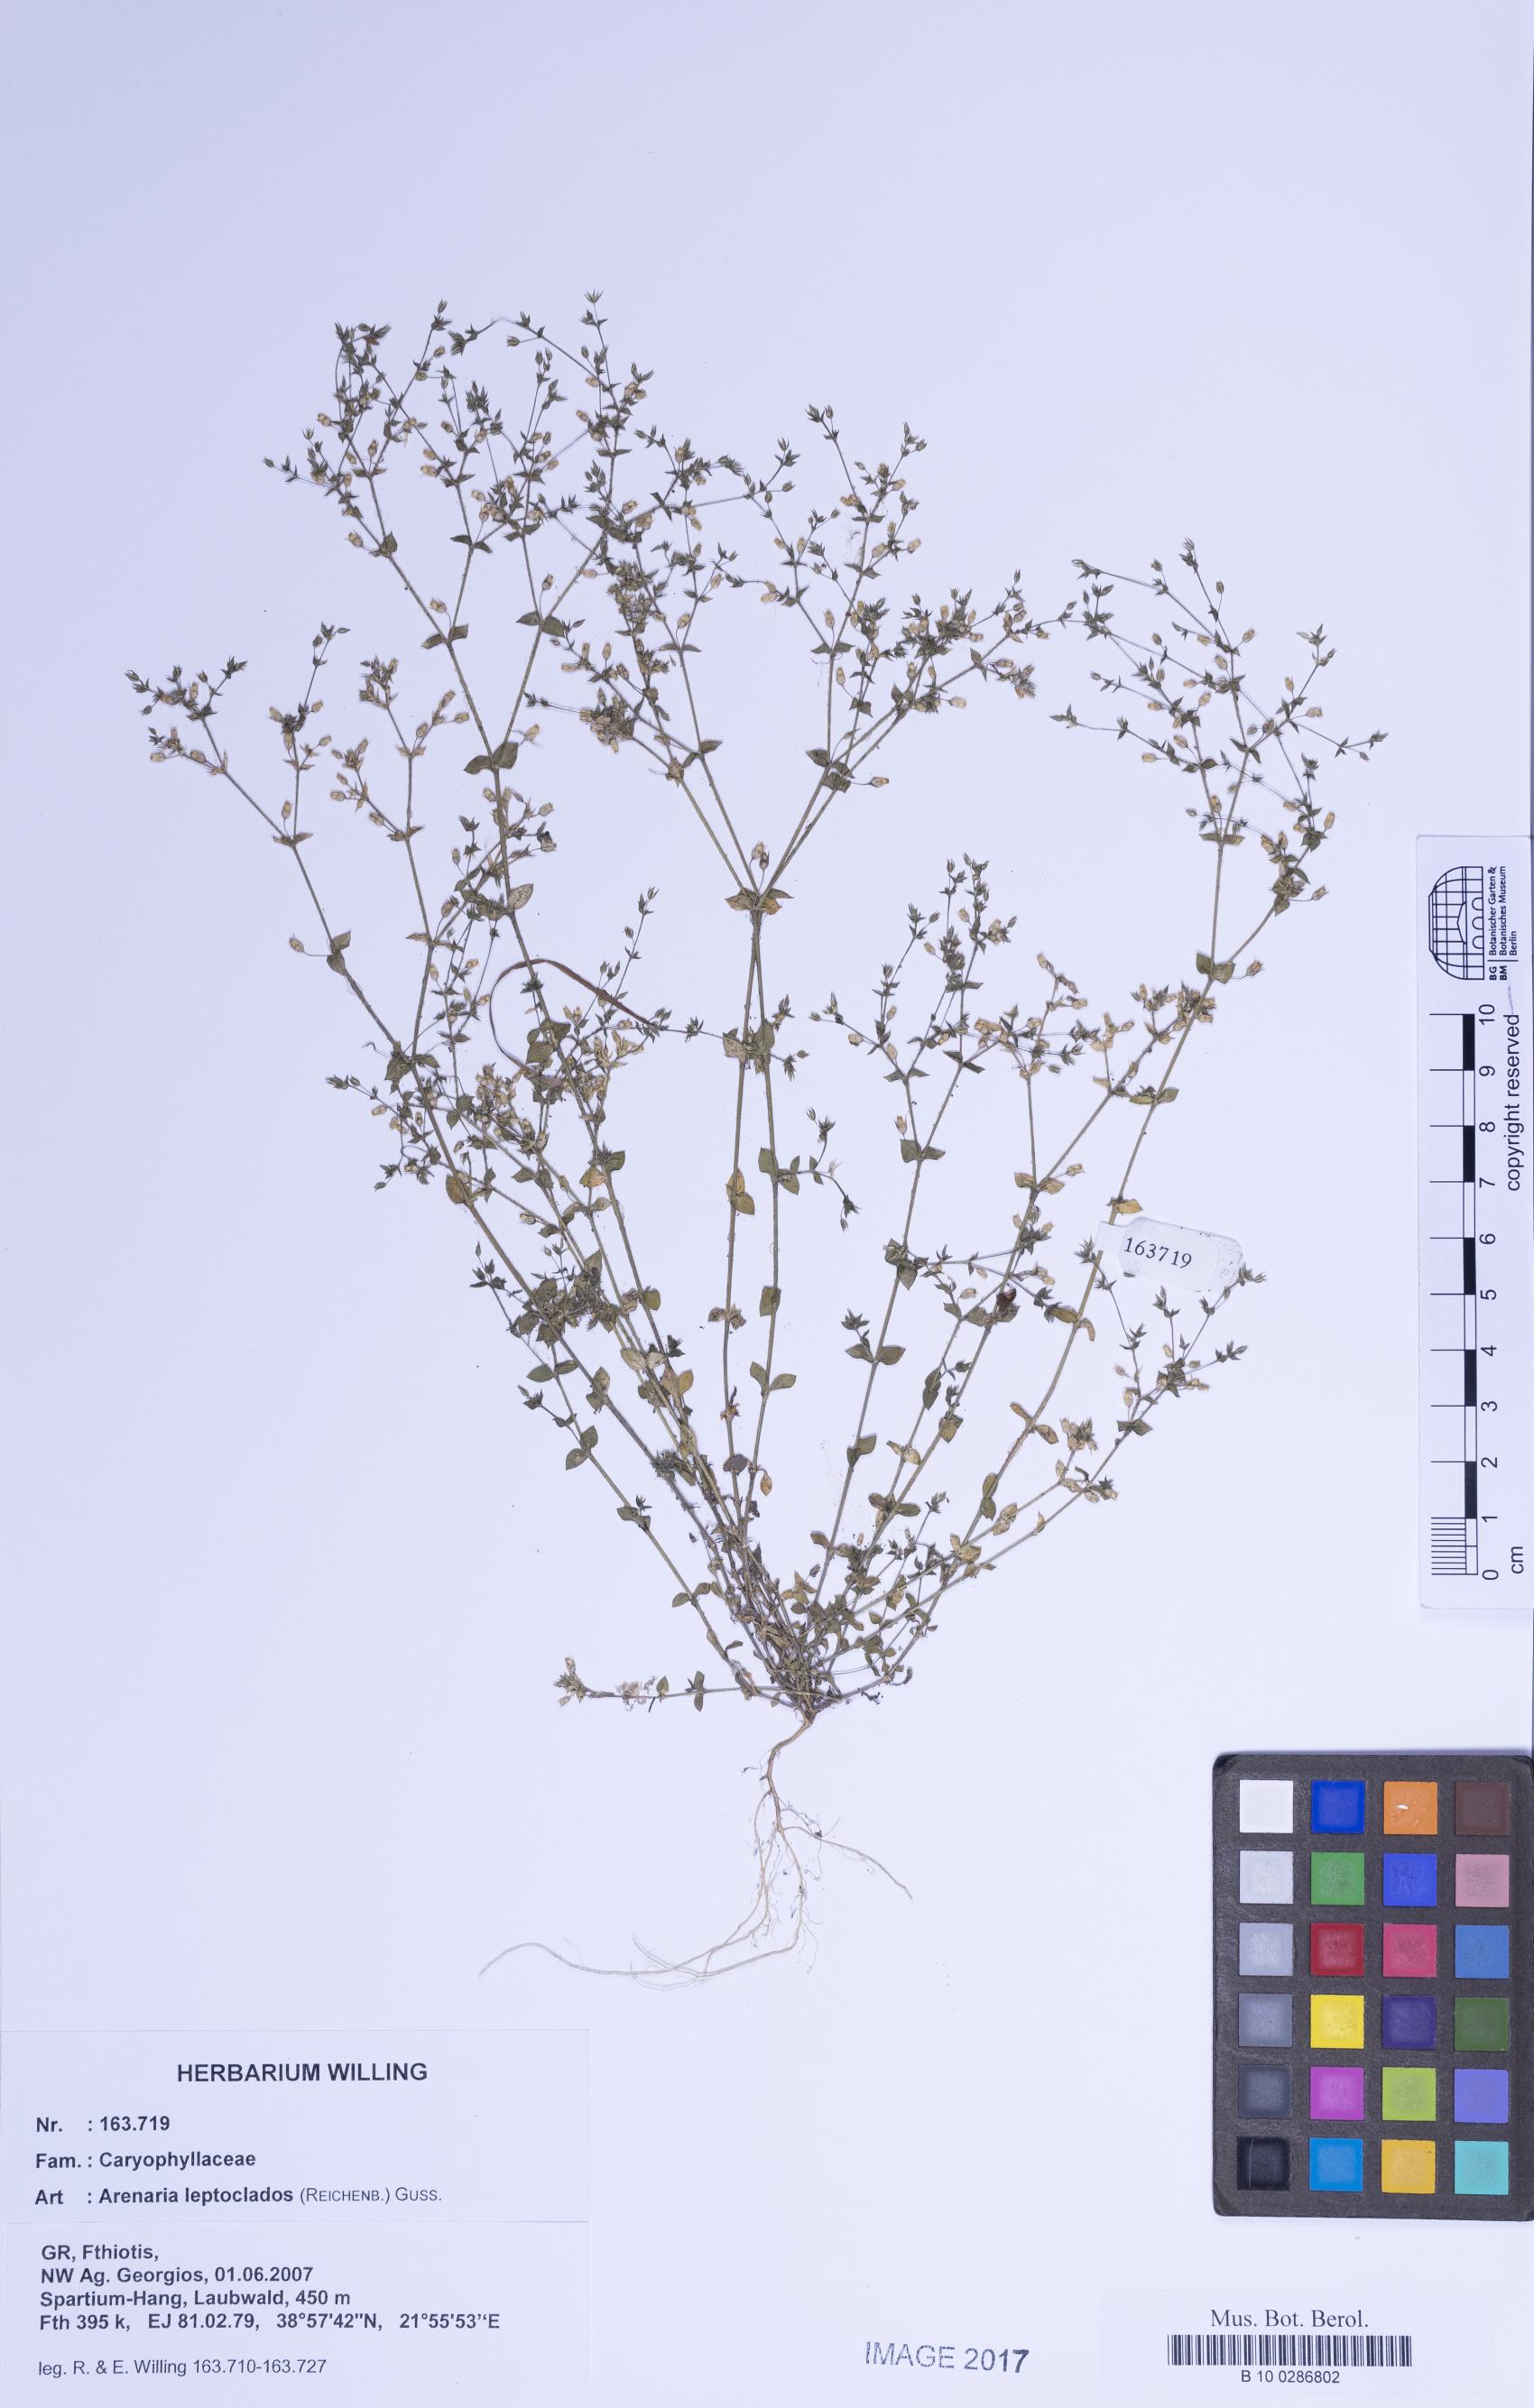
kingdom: Plantae
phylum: Tracheophyta
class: Magnoliopsida
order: Caryophyllales
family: Caryophyllaceae
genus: Arenaria
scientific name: Arenaria leptoclados
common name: Thyme-leaved sandwort
